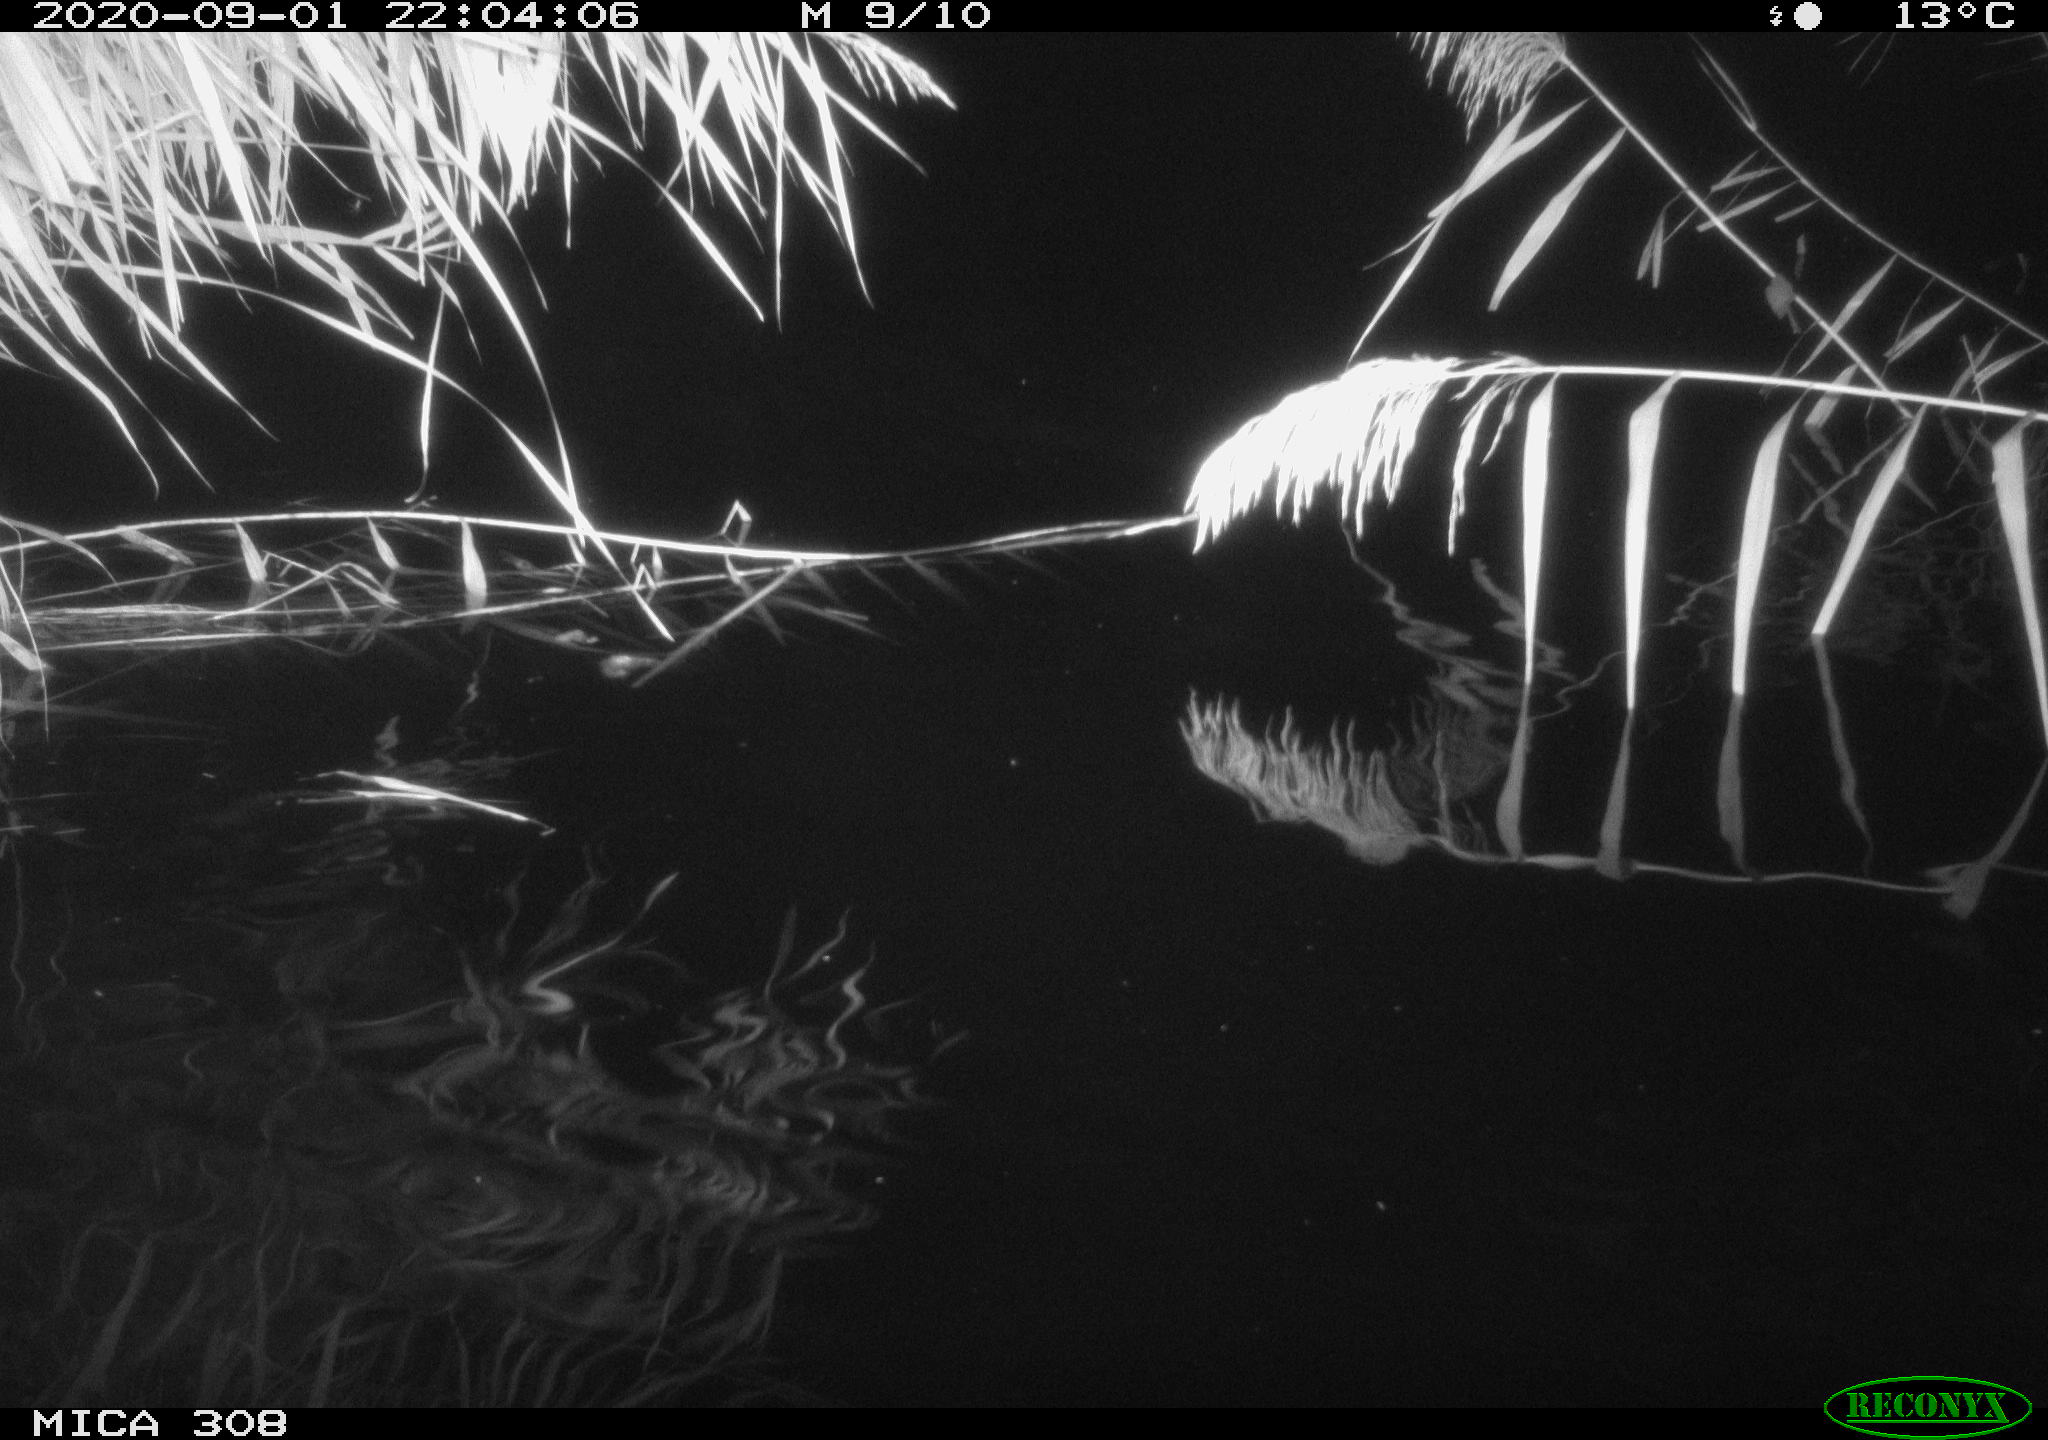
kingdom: Animalia
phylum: Chordata
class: Mammalia
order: Rodentia
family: Muridae
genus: Rattus
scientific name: Rattus norvegicus
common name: Brown rat
